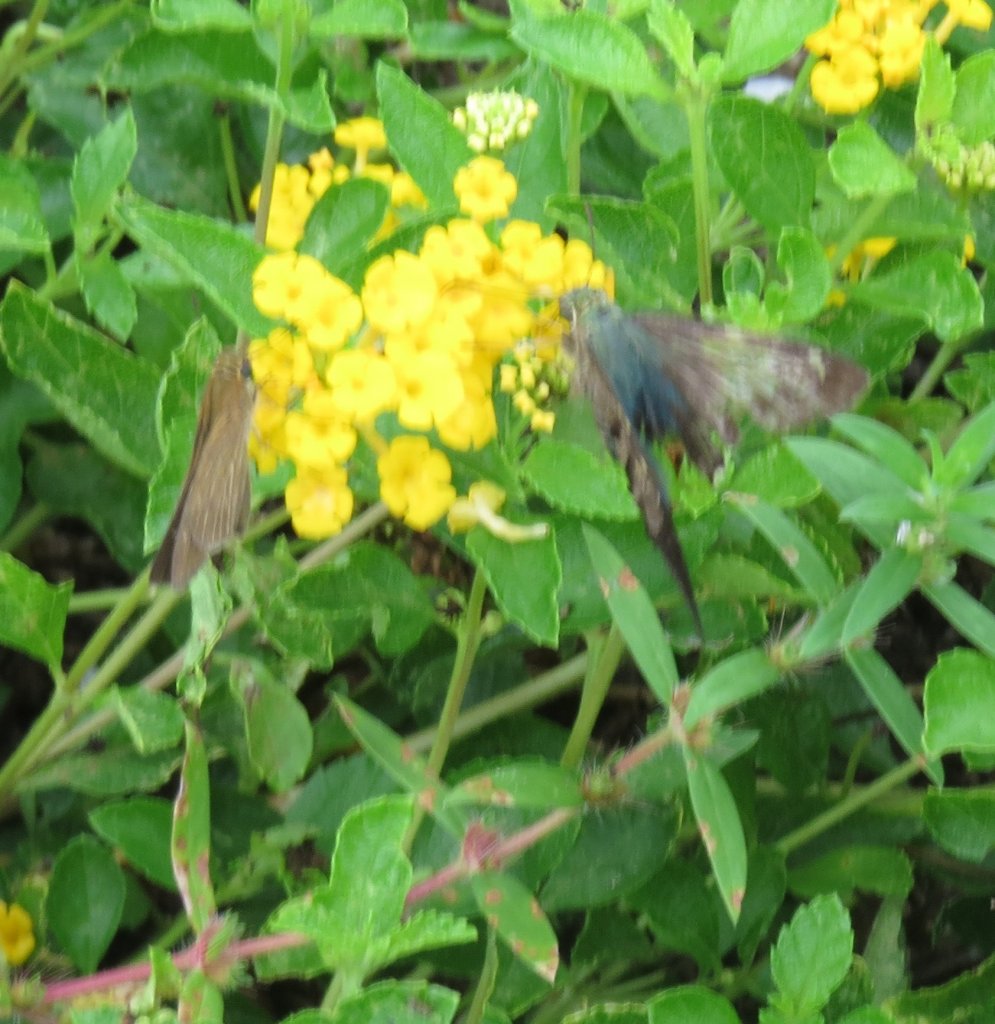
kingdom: Animalia
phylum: Arthropoda
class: Insecta
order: Lepidoptera
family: Hesperiidae
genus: Panoquina
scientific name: Panoquina ocola
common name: Ocola Skipper
